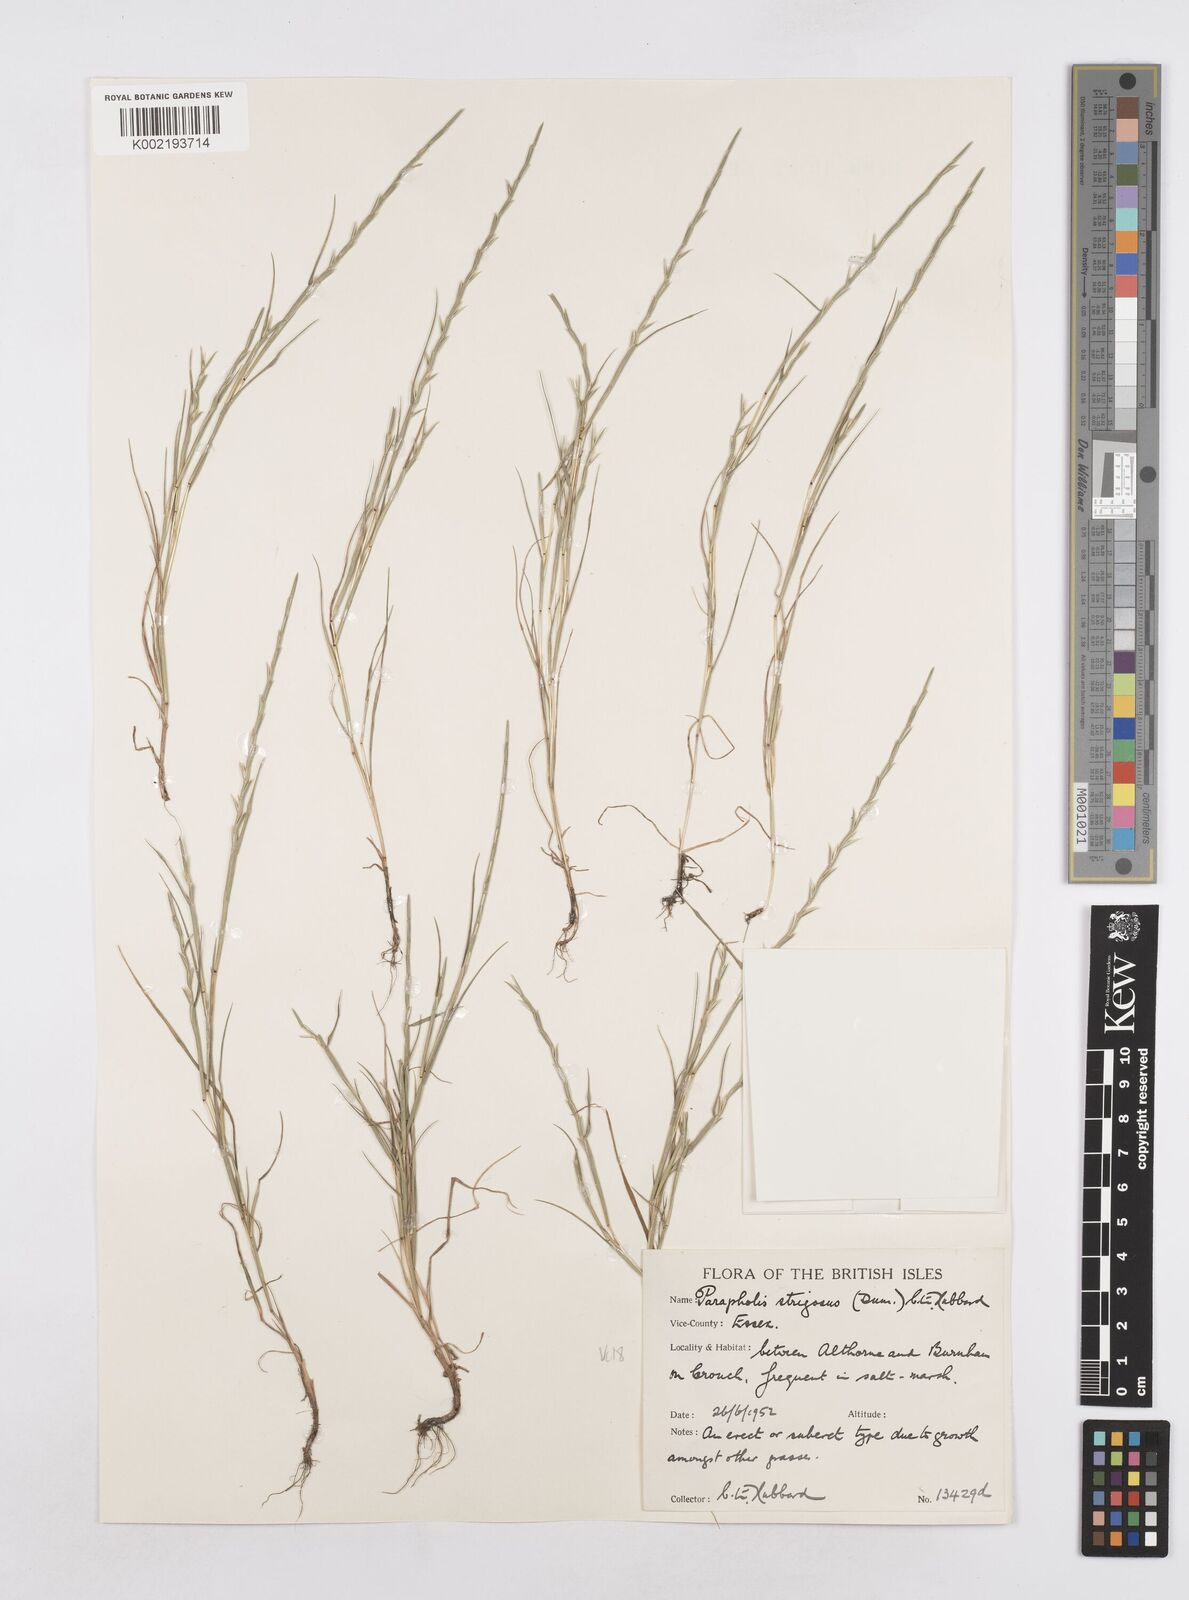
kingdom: Plantae
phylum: Tracheophyta
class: Liliopsida
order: Poales
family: Poaceae
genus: Parapholis
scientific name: Parapholis strigosa
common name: Hard-grass
